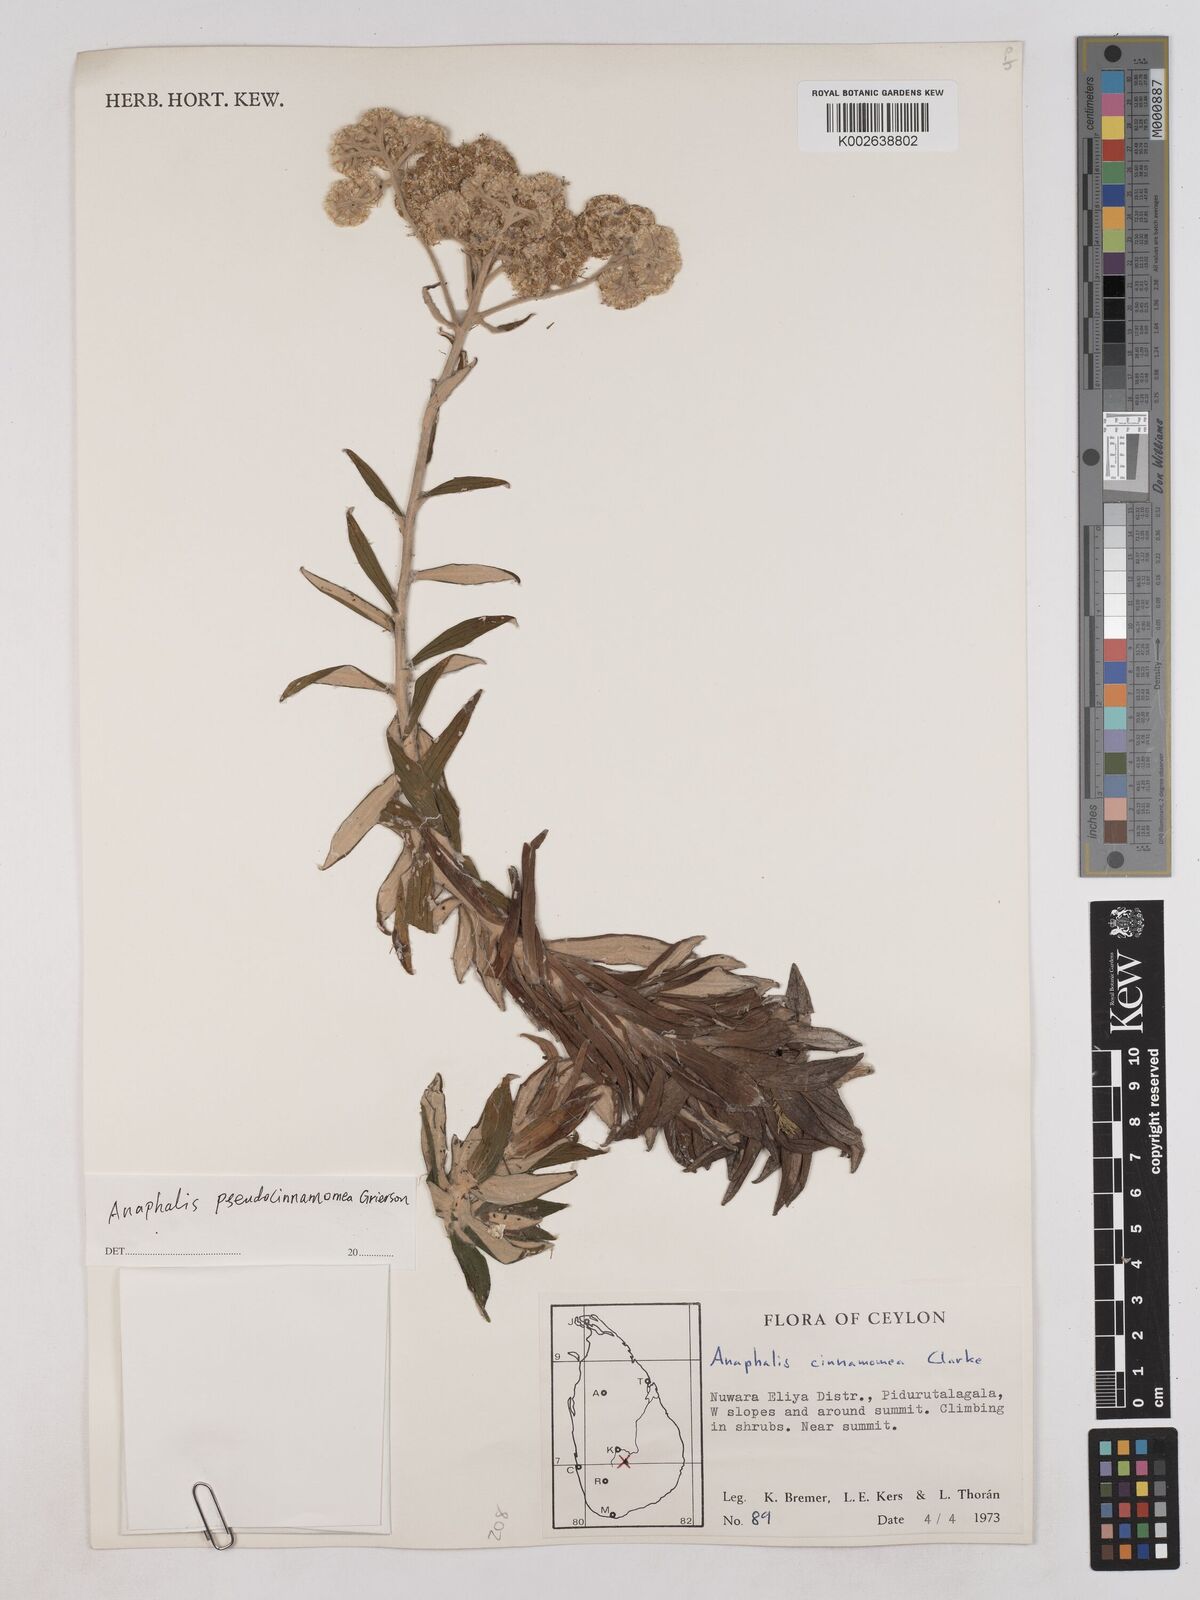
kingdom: Plantae
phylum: Tracheophyta
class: Magnoliopsida
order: Asterales
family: Asteraceae
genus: Anaphalis
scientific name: Anaphalis marcescens
